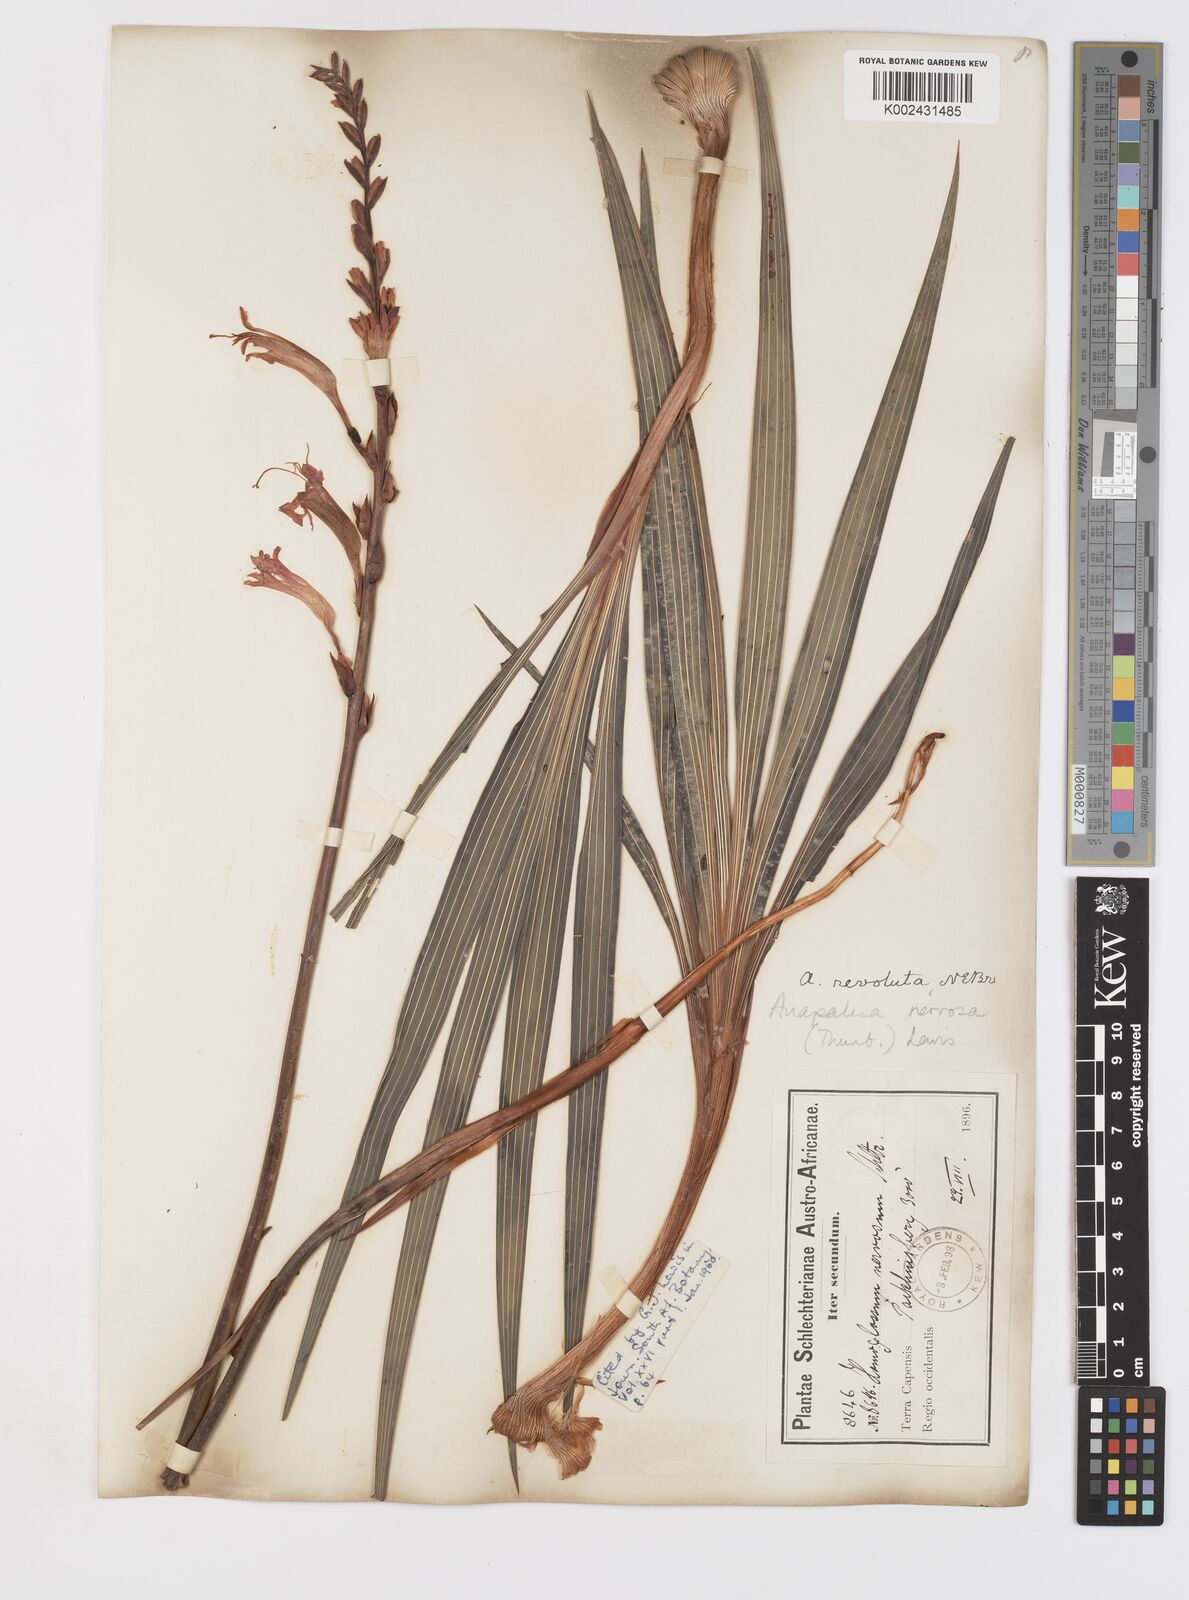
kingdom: Plantae
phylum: Tracheophyta
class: Liliopsida
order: Asparagales
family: Iridaceae
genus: Tritoniopsis
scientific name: Tritoniopsis nervosa
